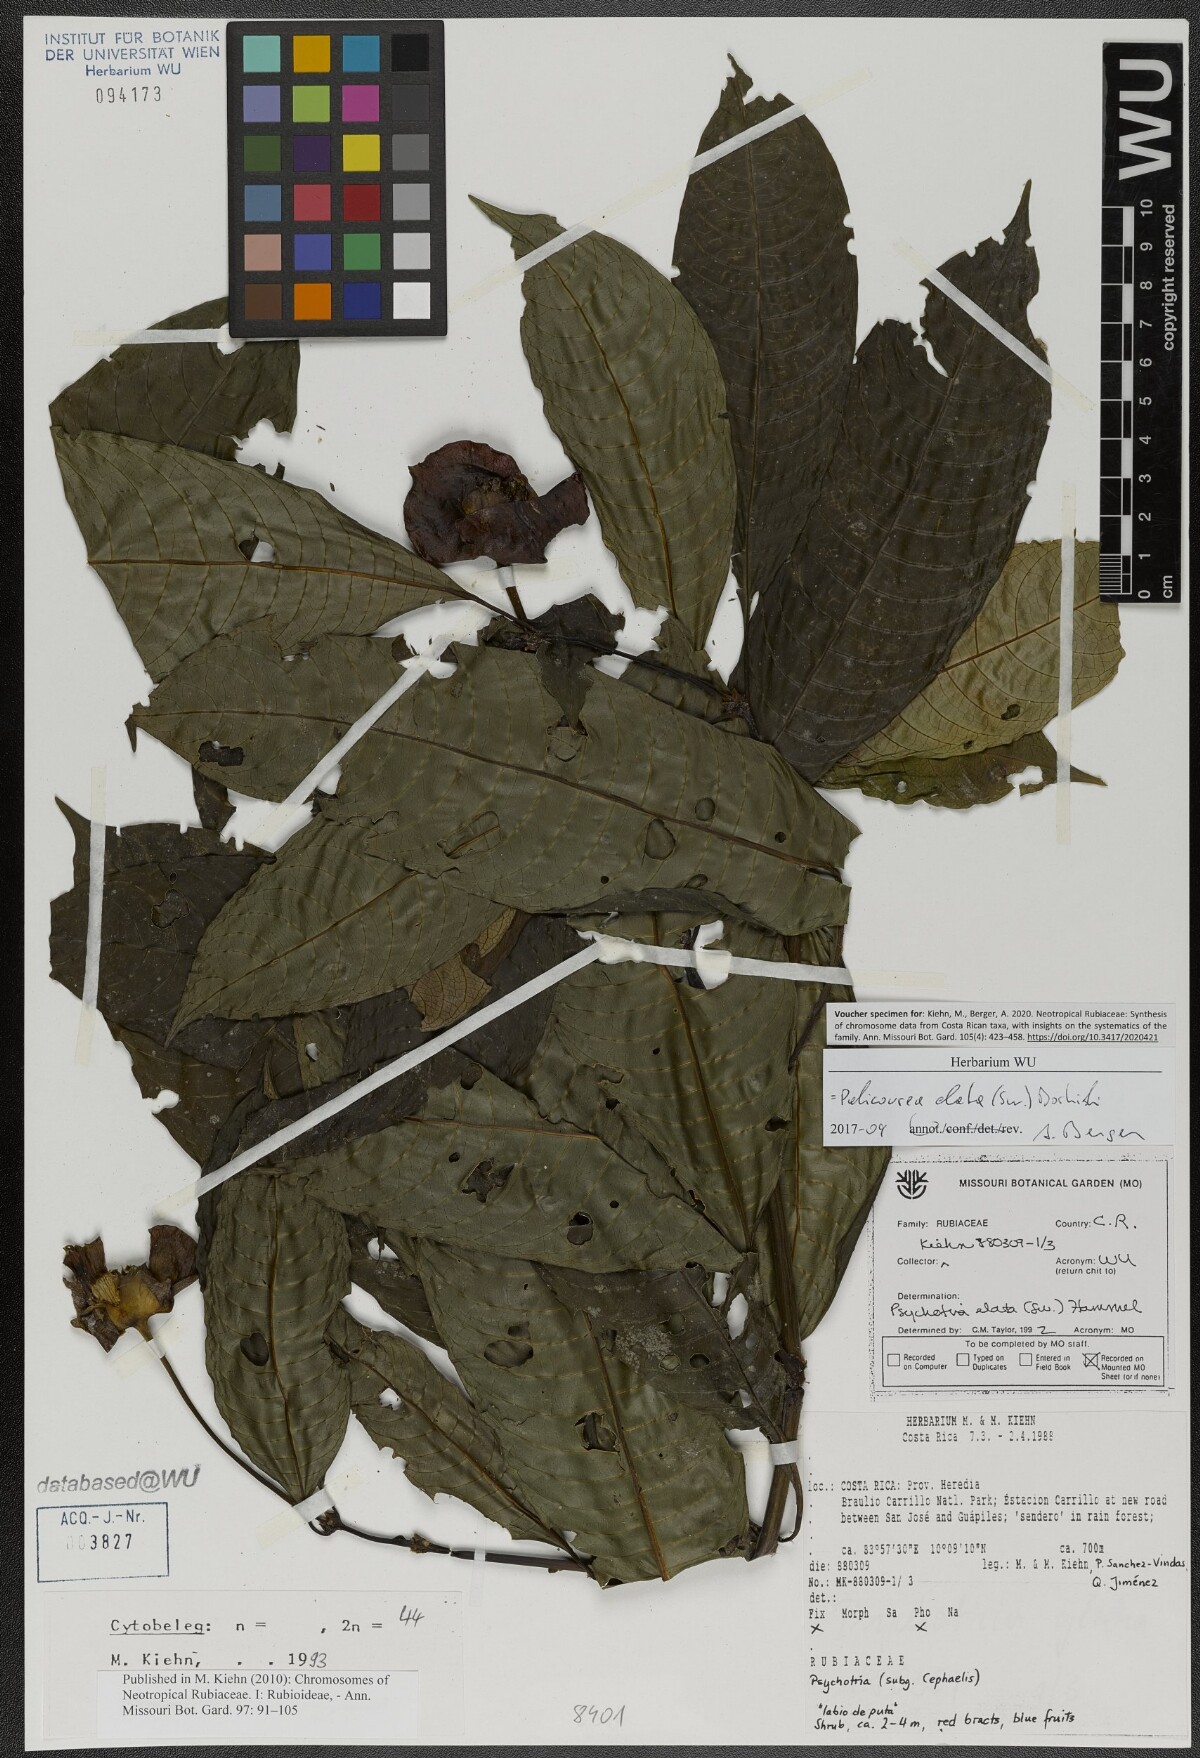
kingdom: Plantae
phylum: Tracheophyta
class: Magnoliopsida
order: Gentianales
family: Rubiaceae
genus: Palicourea
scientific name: Palicourea elata
